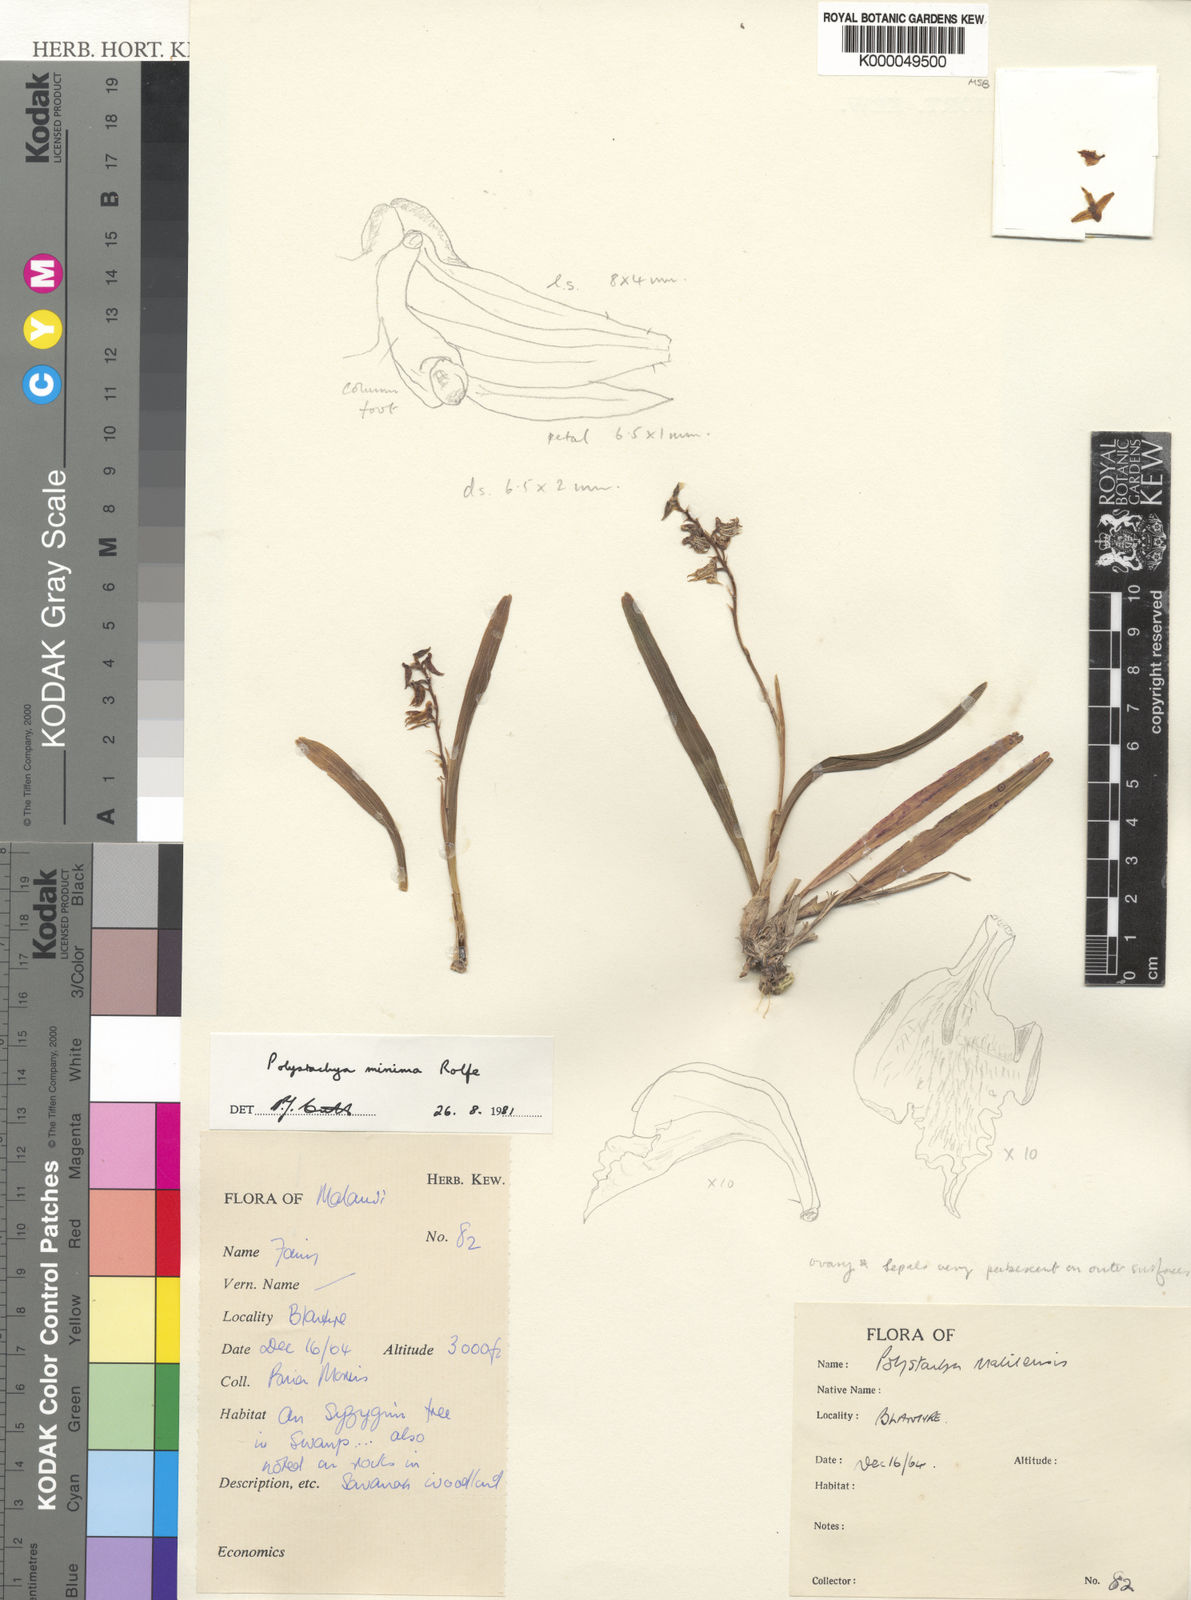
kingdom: Plantae
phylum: Tracheophyta
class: Liliopsida
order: Asparagales
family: Orchidaceae
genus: Polystachya
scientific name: Polystachya minima
